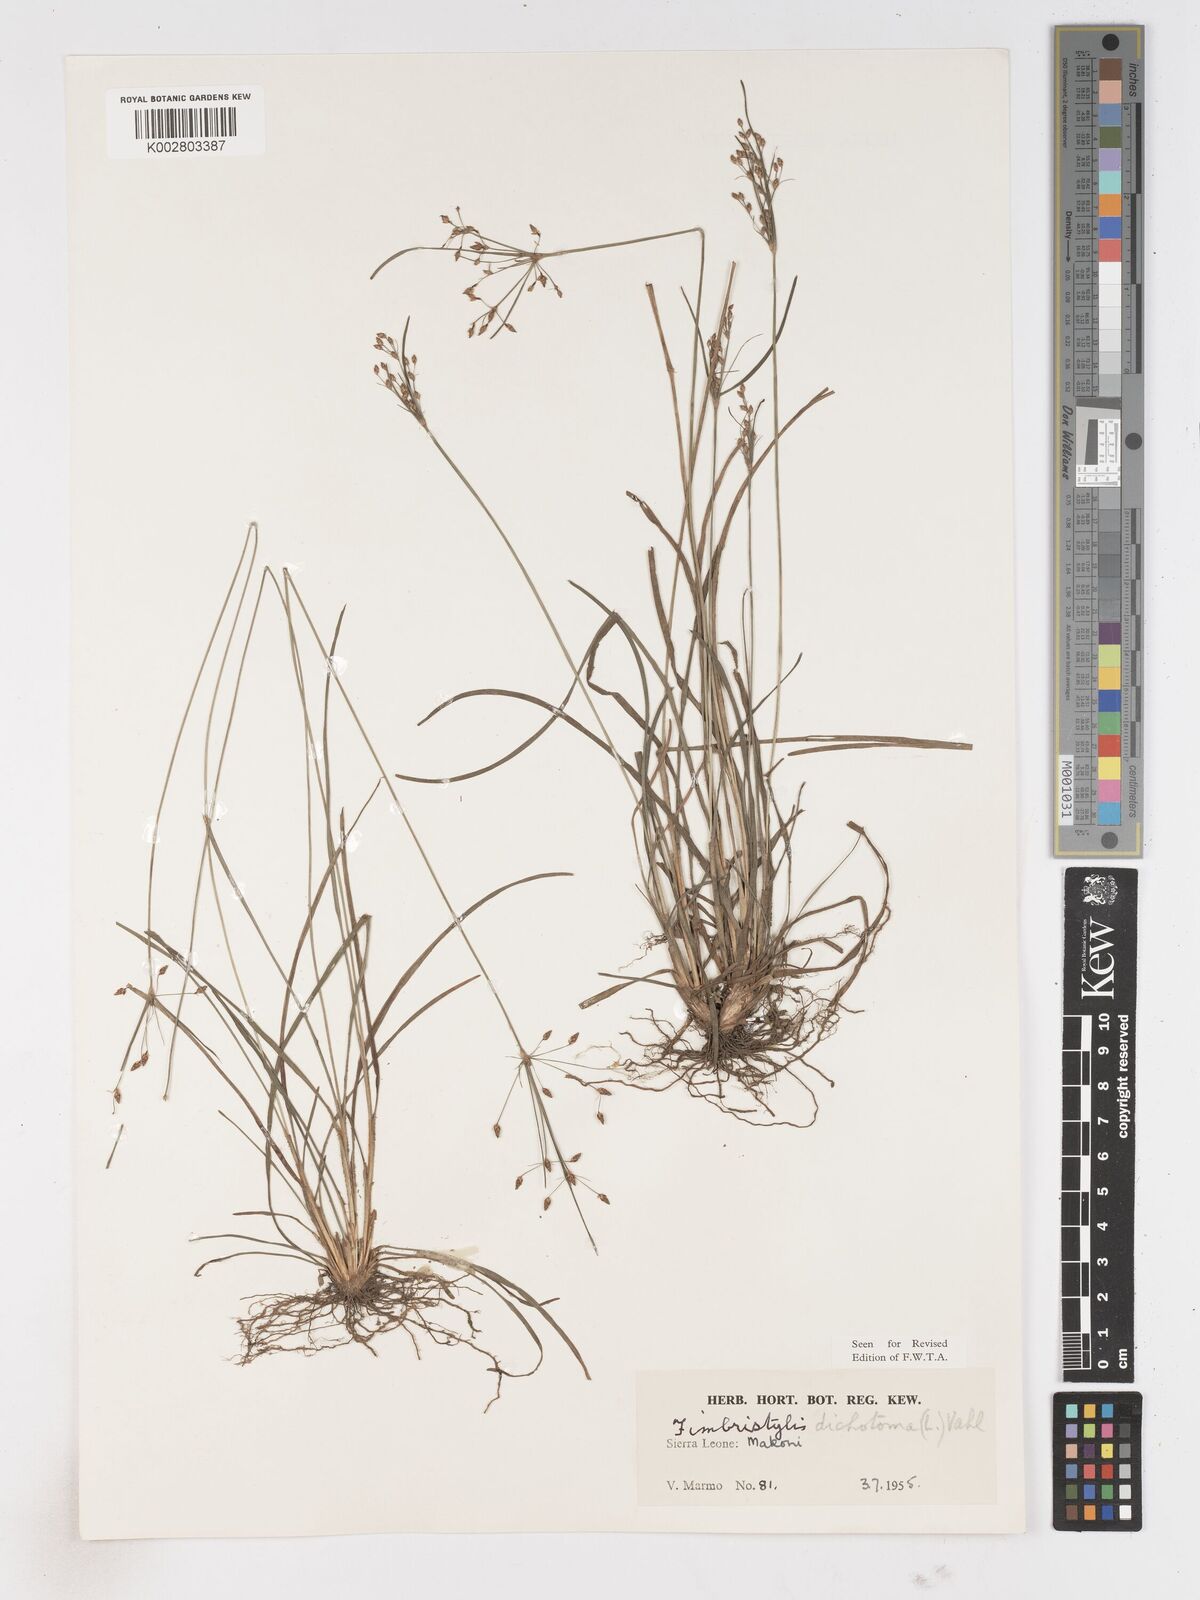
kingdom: Plantae
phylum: Tracheophyta
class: Liliopsida
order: Poales
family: Cyperaceae
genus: Fimbristylis
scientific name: Fimbristylis dichotoma
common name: Forked fimbry
